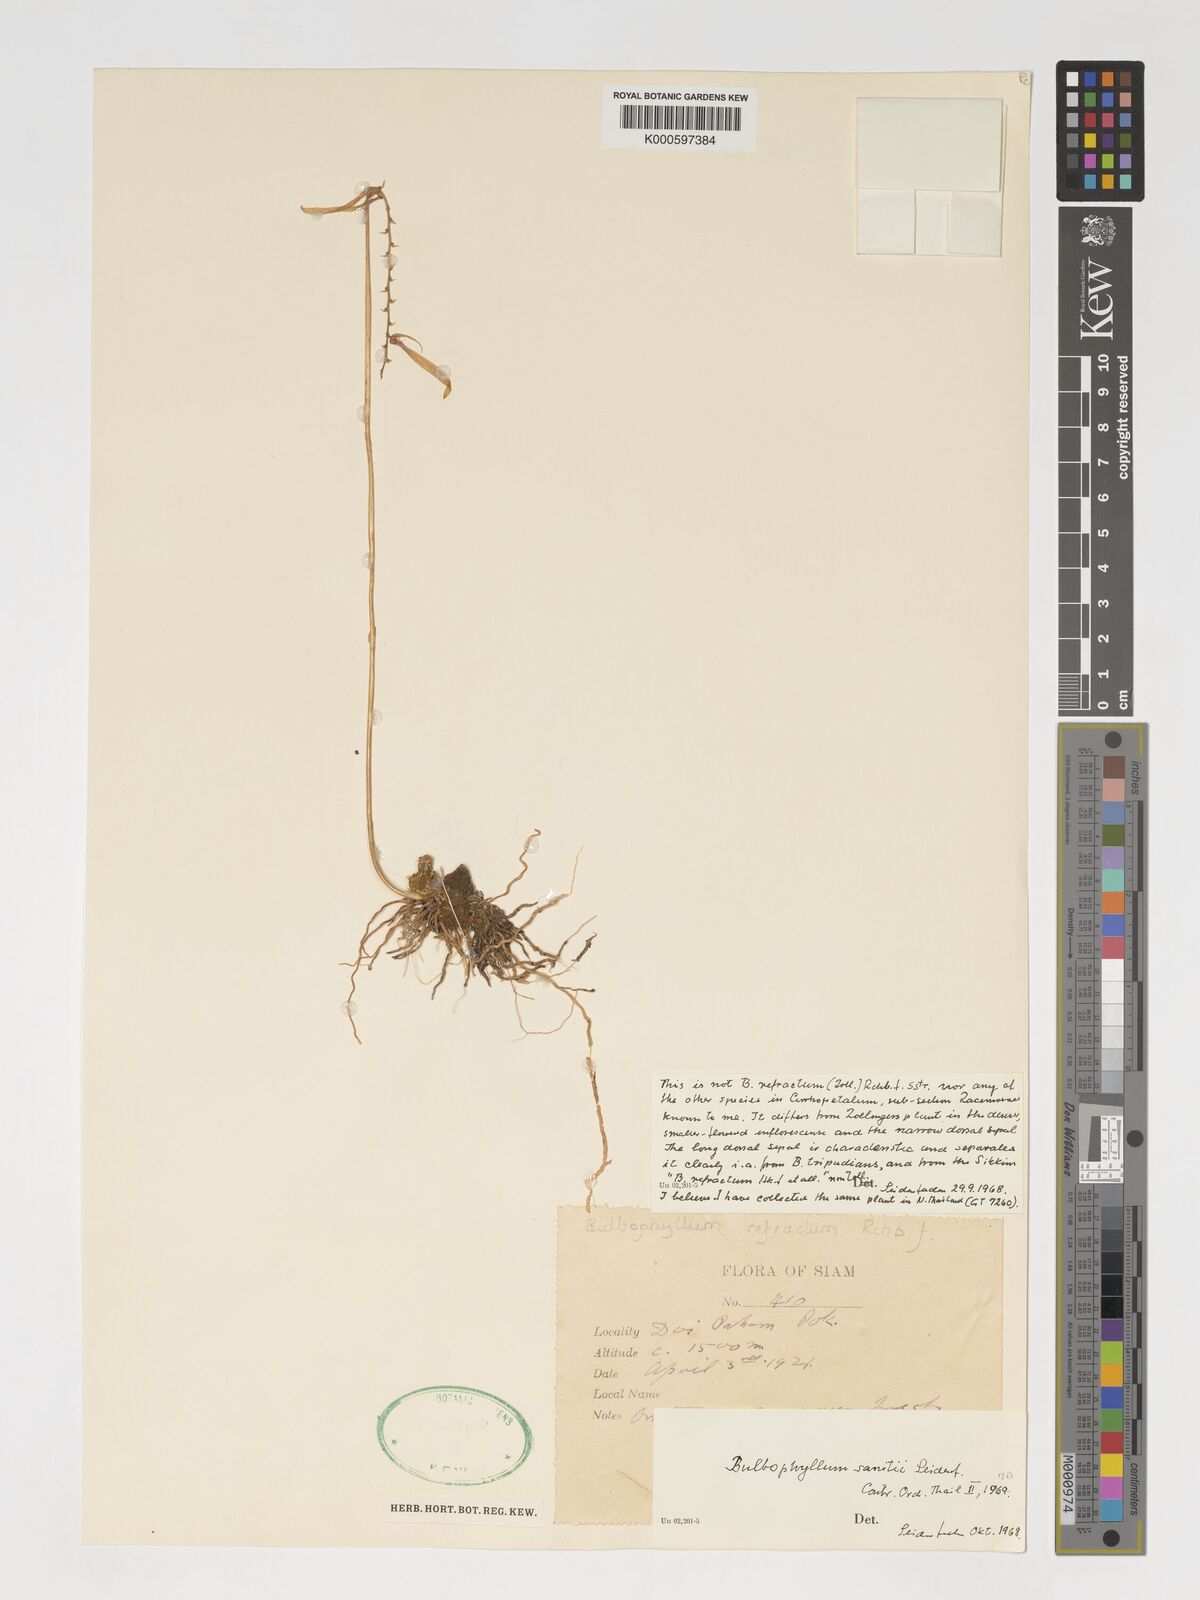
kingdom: Plantae
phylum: Tracheophyta
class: Liliopsida
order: Asparagales
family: Orchidaceae
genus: Bulbophyllum
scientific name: Bulbophyllum sanitii
